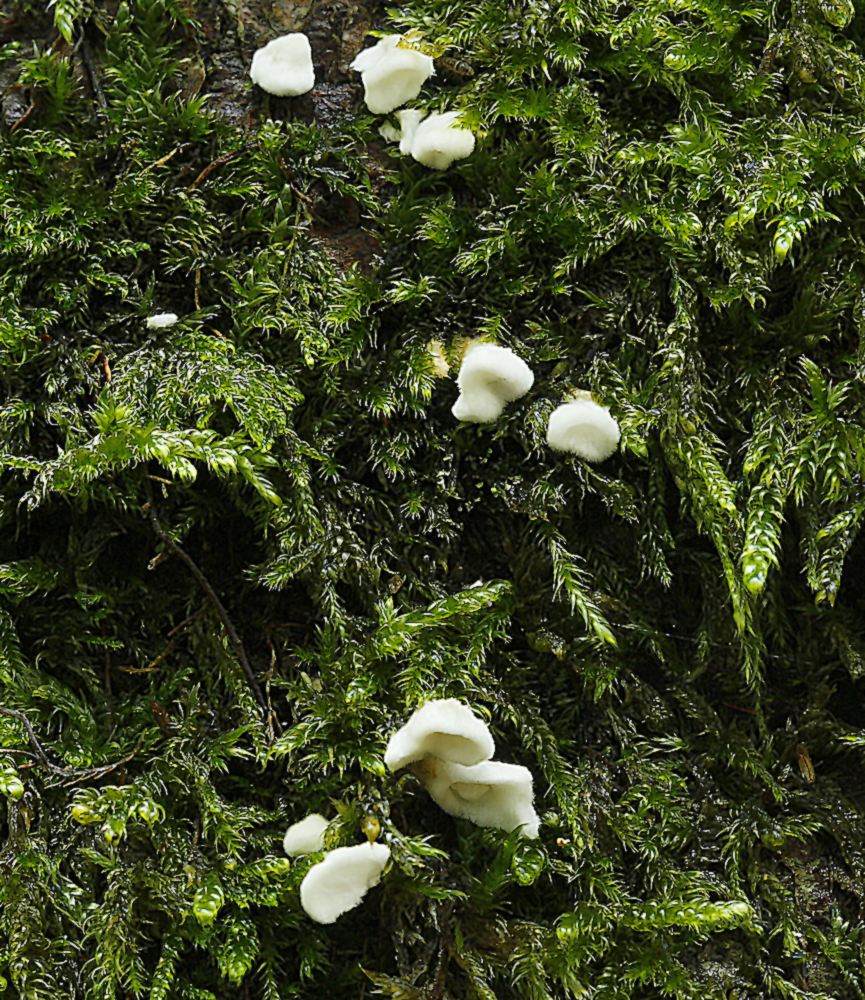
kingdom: Fungi
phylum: Basidiomycota
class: Agaricomycetes
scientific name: Agaricomycetes
